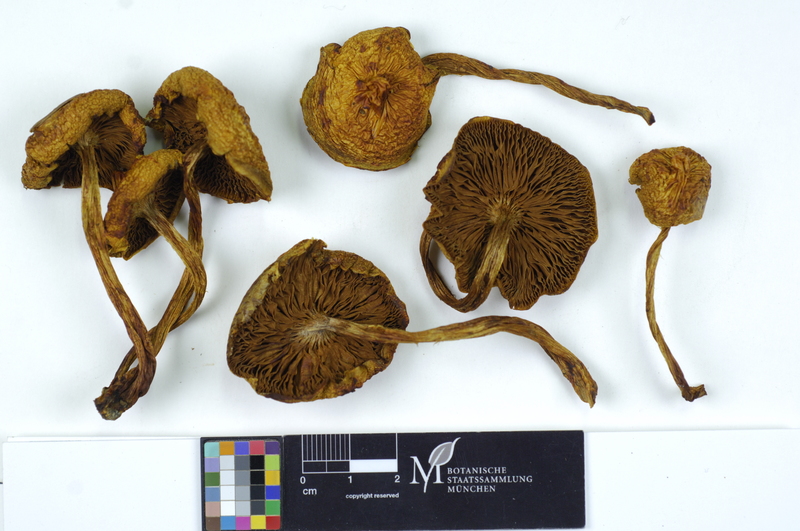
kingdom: Fungi
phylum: Basidiomycota
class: Agaricomycetes
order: Agaricales
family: Strophariaceae
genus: Pholiota
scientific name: Pholiota lucifera
